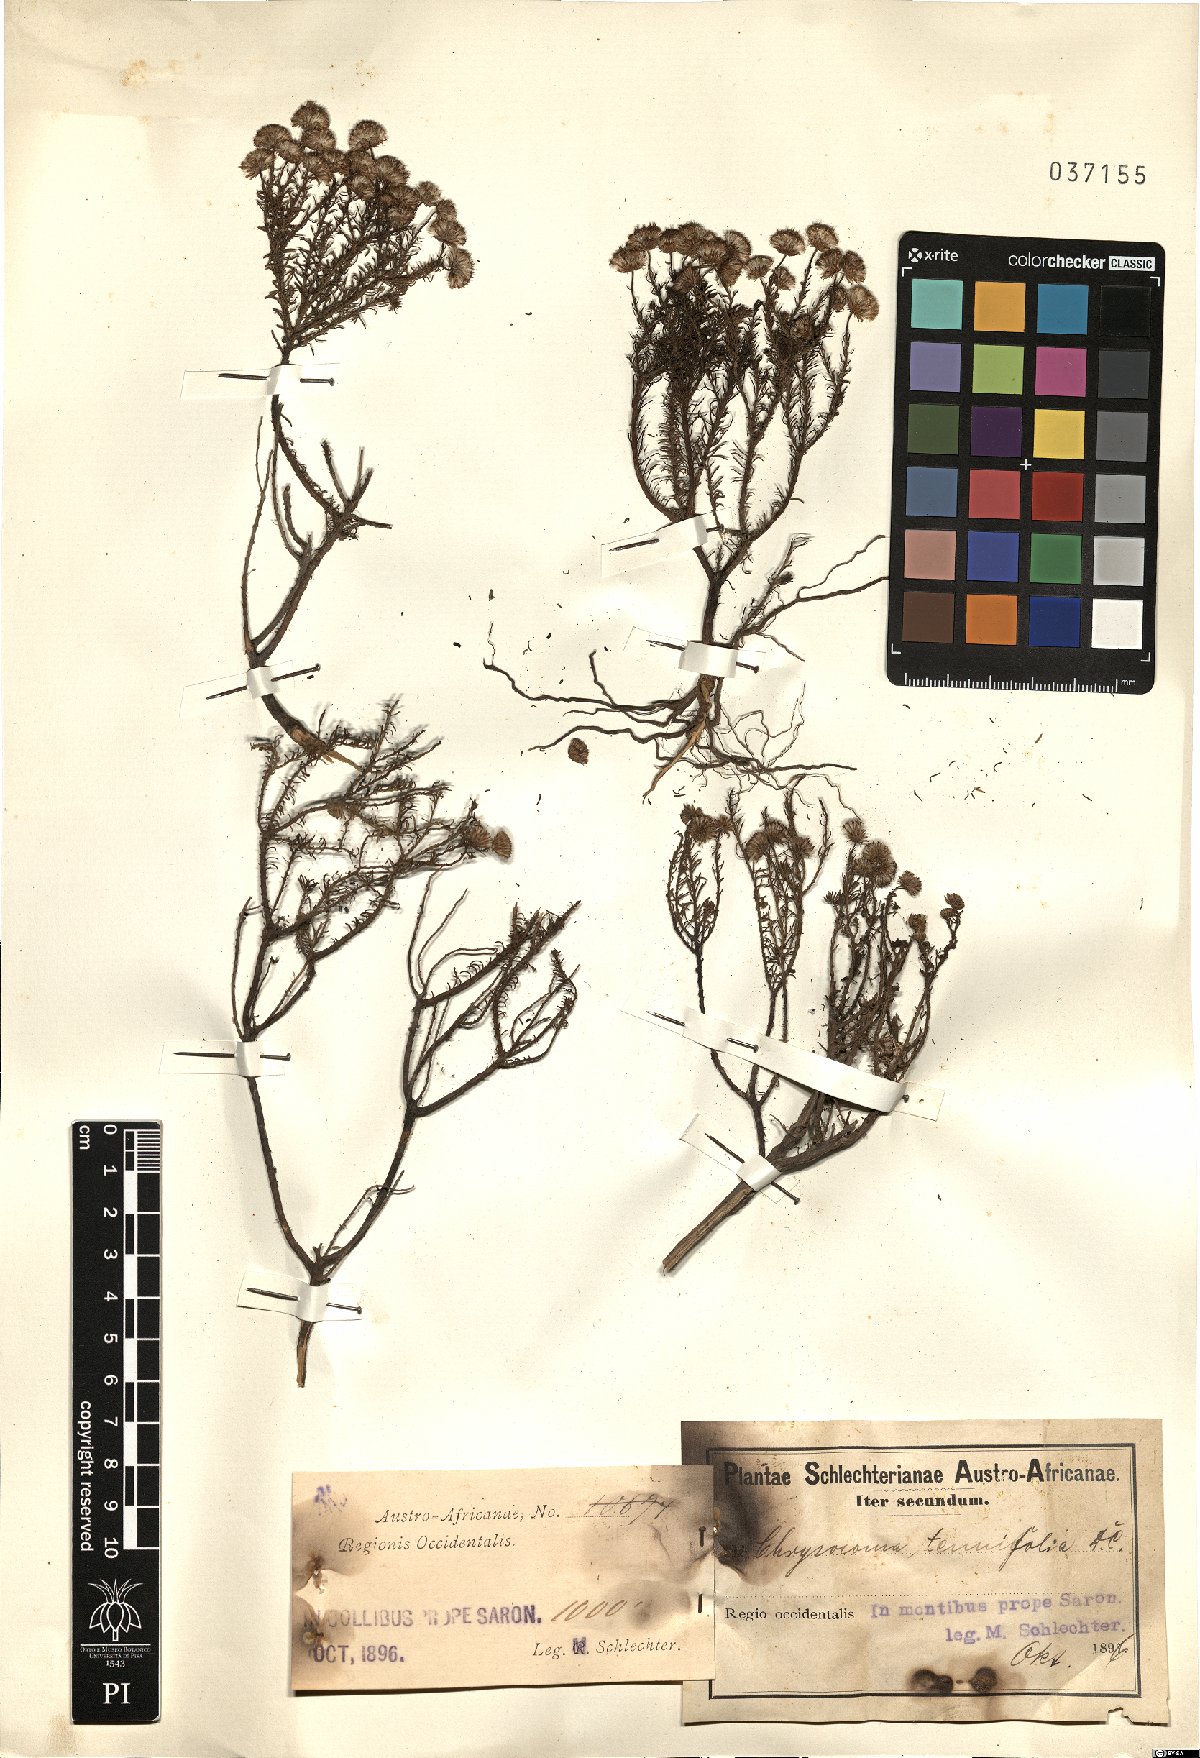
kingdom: Plantae
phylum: Tracheophyta
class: Magnoliopsida
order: Asterales
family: Asteraceae
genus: Chrysocoma
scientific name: Chrysocoma ciliata
